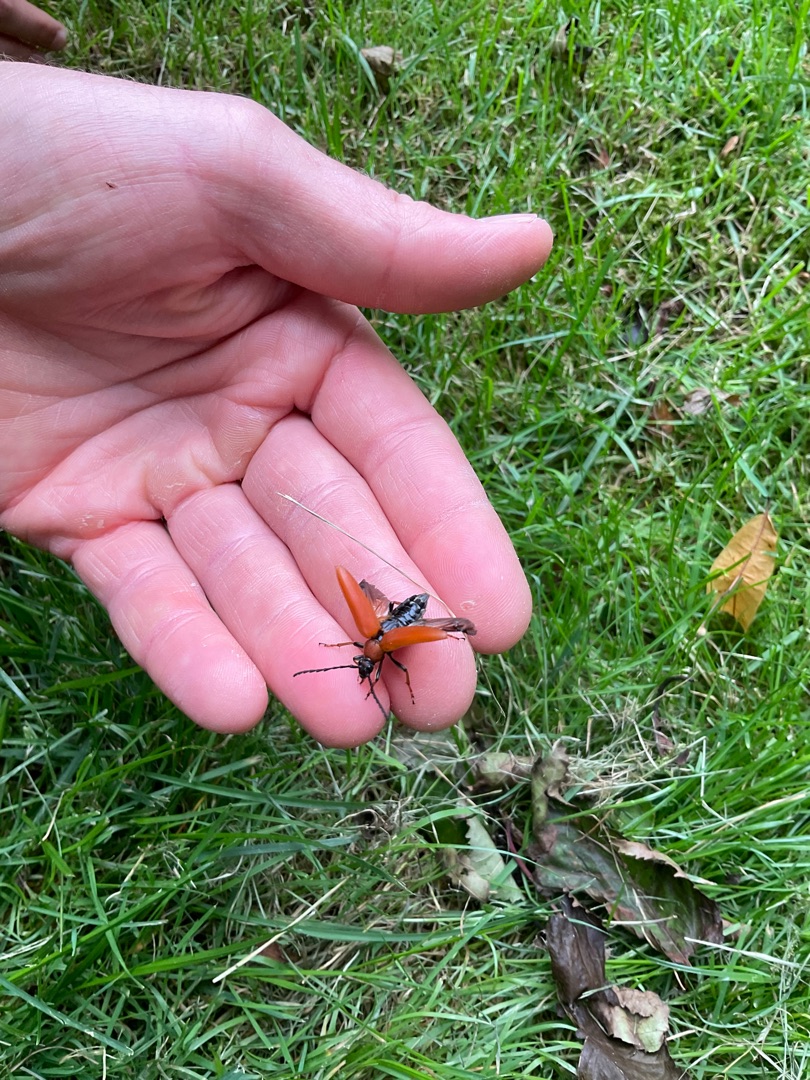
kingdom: Animalia
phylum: Arthropoda
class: Insecta
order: Coleoptera
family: Cerambycidae
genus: Stictoleptura
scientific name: Stictoleptura rubra
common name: Rød blomsterbuk
